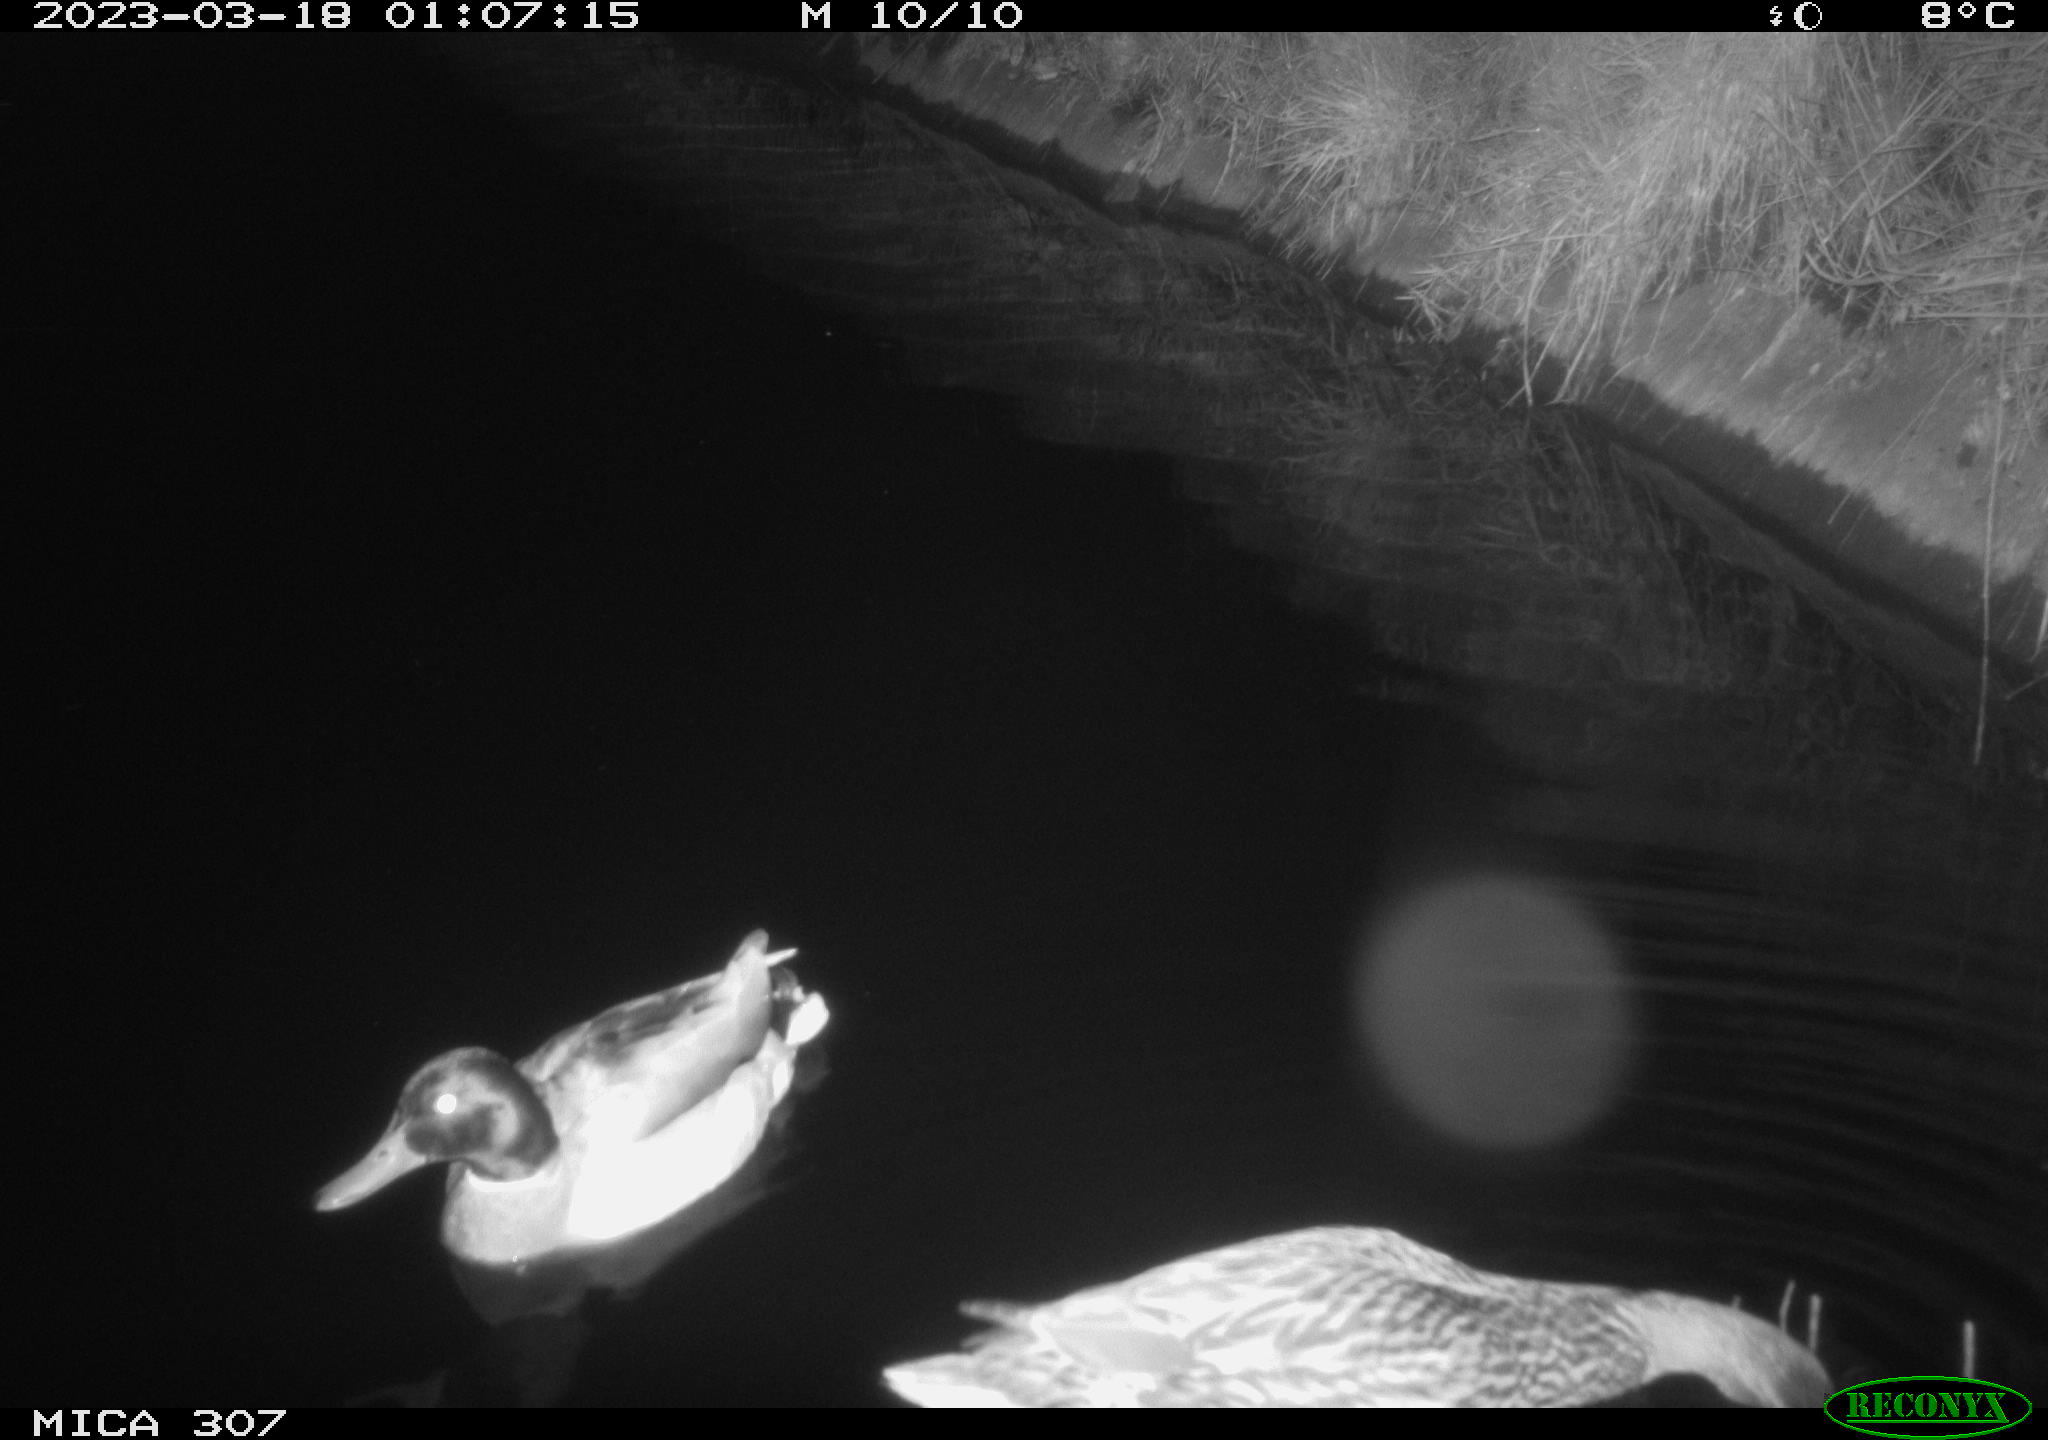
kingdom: Animalia
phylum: Chordata
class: Aves
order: Anseriformes
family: Anatidae
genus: Anas
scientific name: Anas
